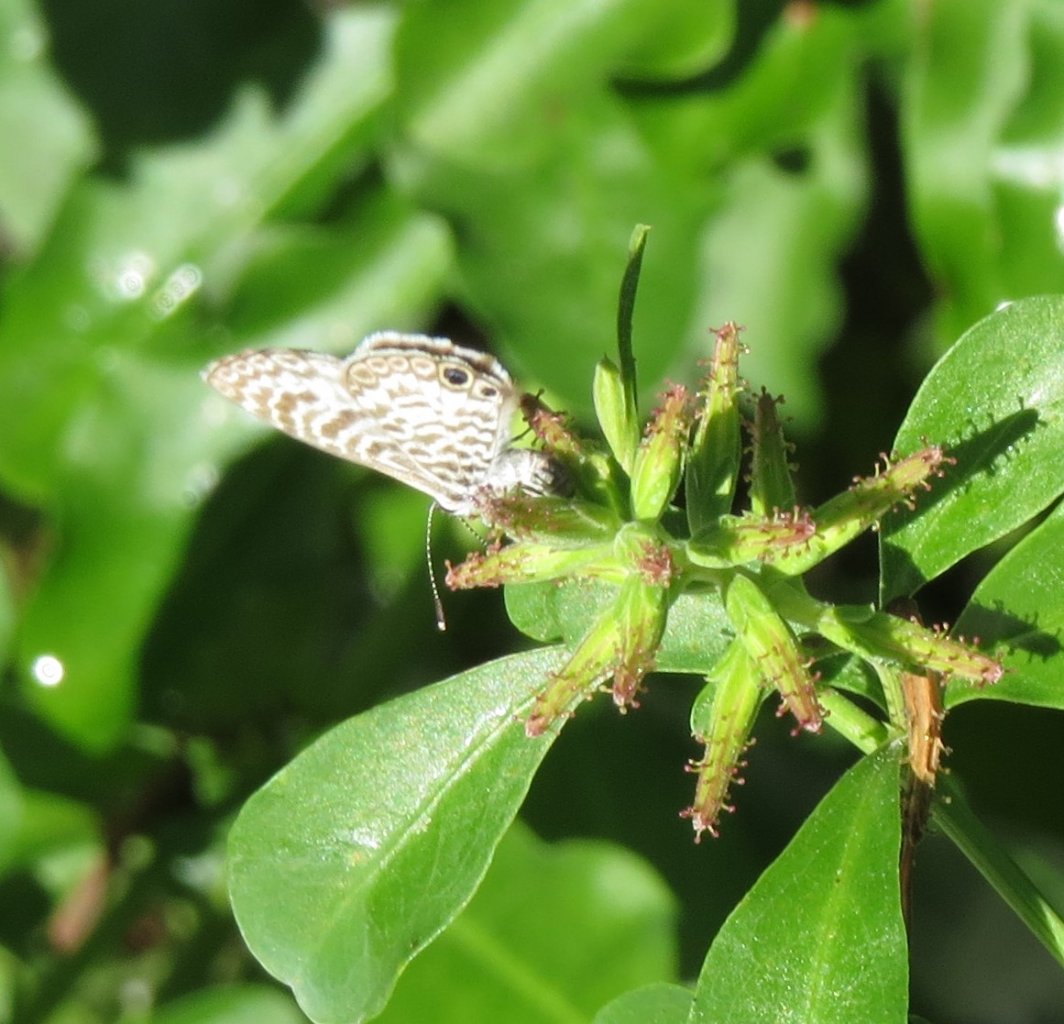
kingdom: Animalia
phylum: Arthropoda
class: Insecta
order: Lepidoptera
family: Lycaenidae
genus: Leptotes
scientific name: Leptotes cassius
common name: Cassius Blue
